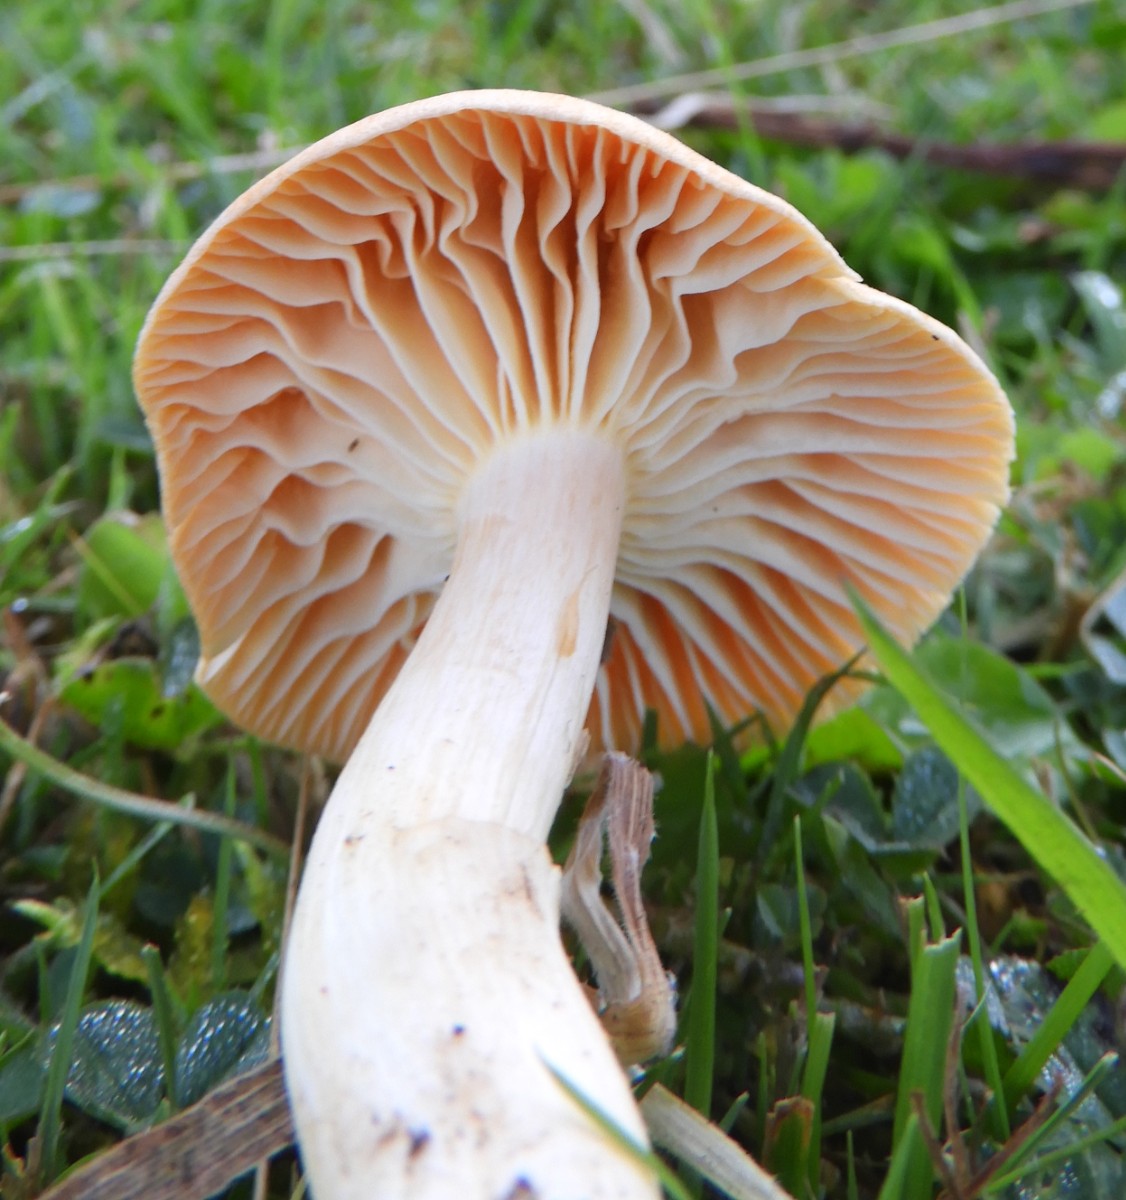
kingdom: Fungi
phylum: Basidiomycota
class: Agaricomycetes
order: Agaricales
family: Hygrophoraceae
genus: Cuphophyllus
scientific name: Cuphophyllus pratensis
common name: eng-vokshat
